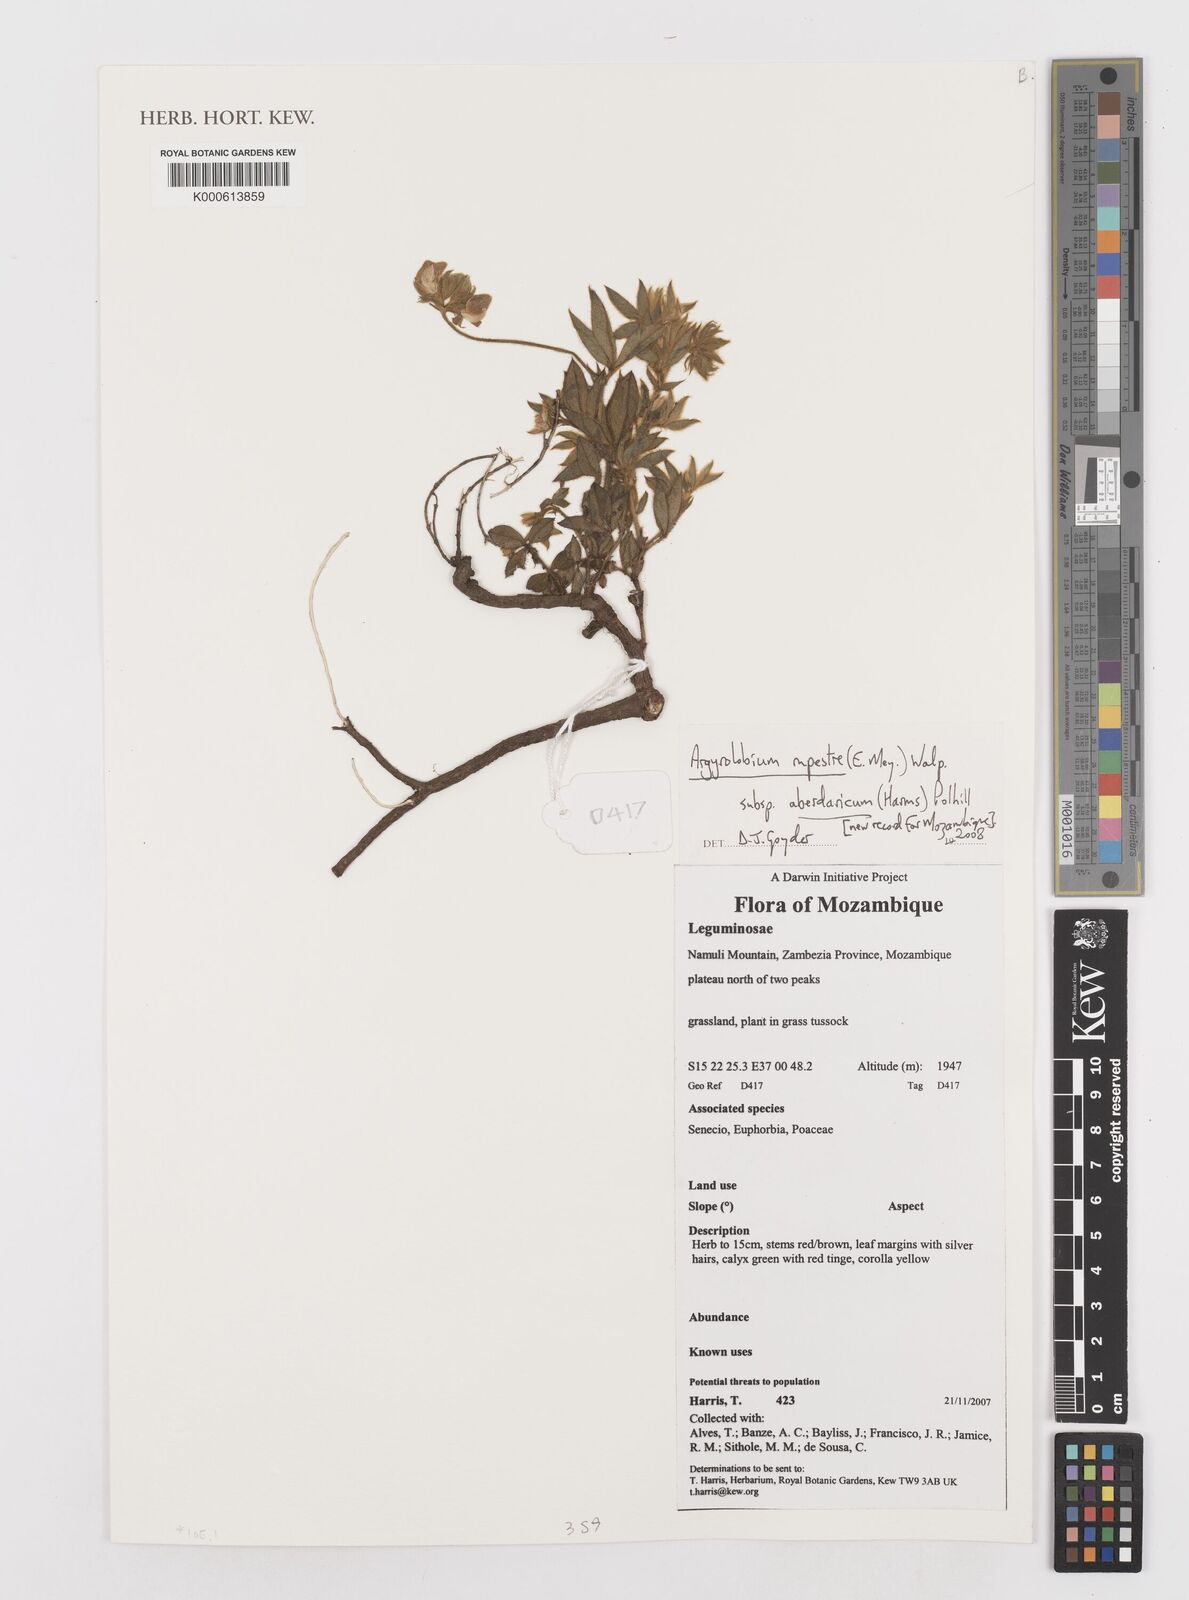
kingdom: Plantae
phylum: Tracheophyta
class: Magnoliopsida
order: Fabales
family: Fabaceae
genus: Argyrolobium
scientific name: Argyrolobium rupestre
